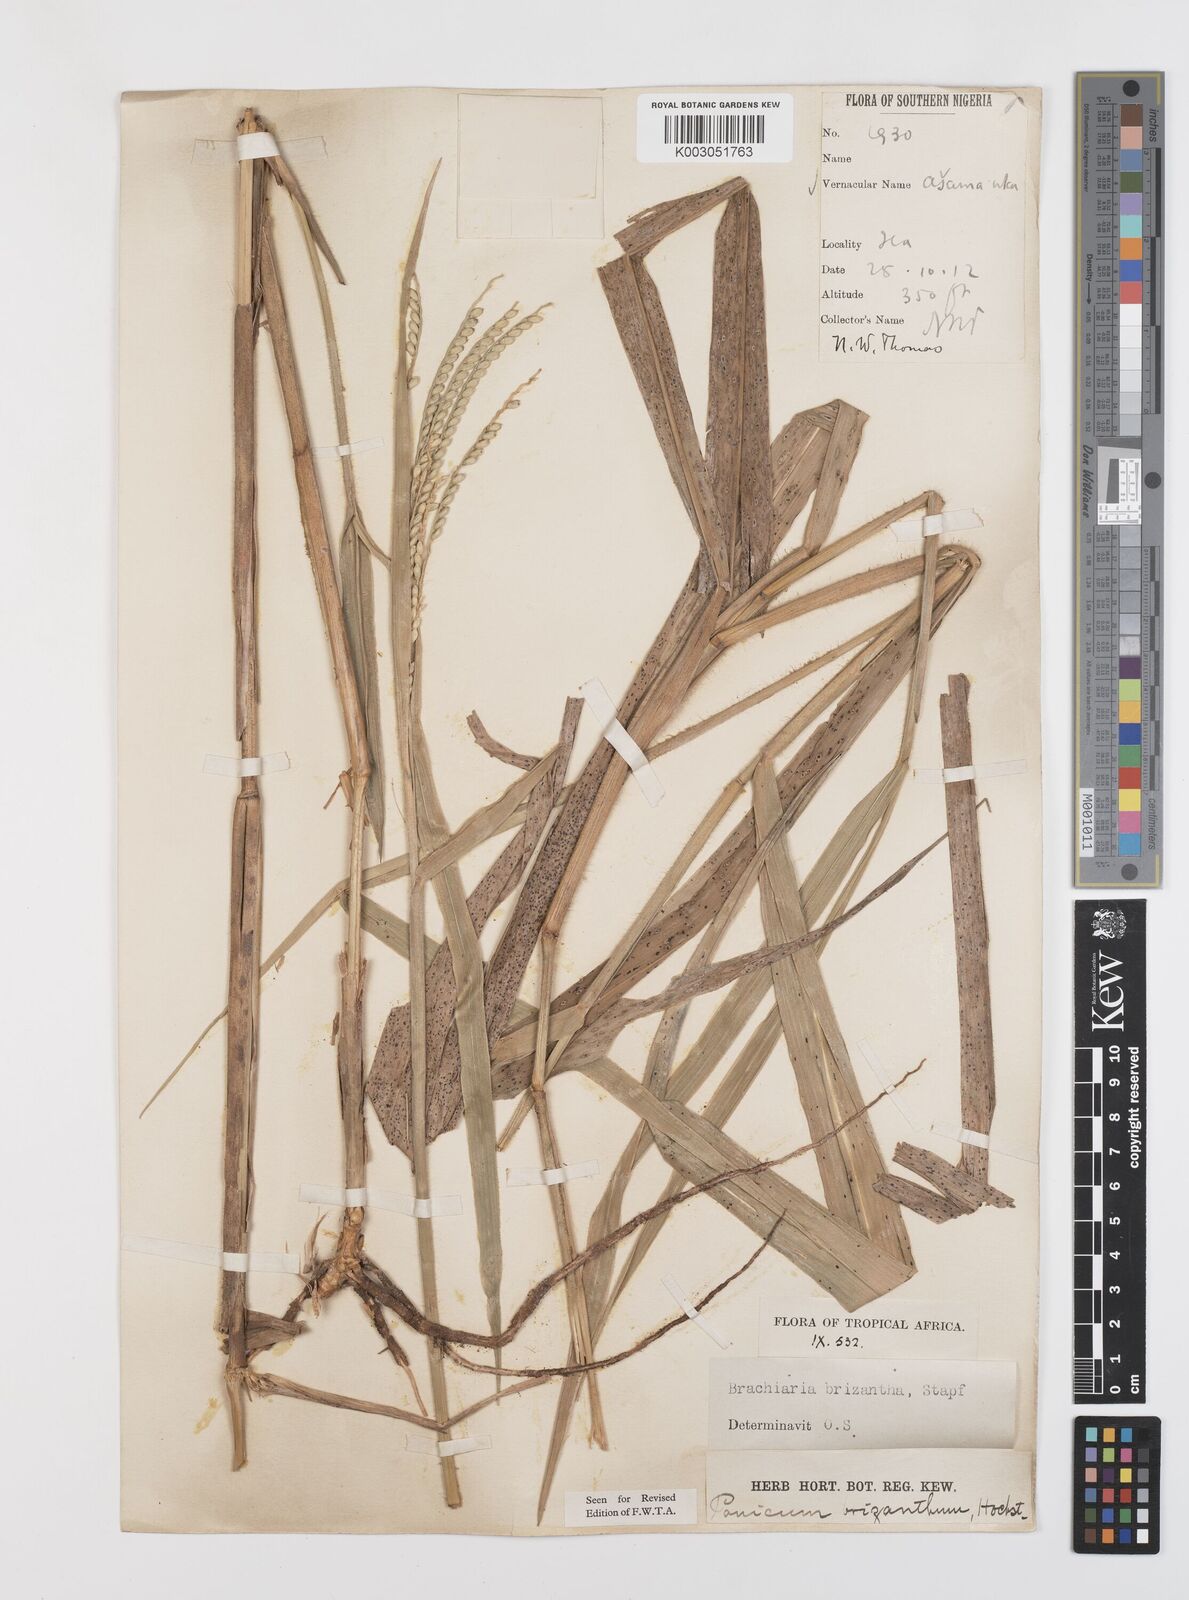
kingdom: Plantae
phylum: Tracheophyta
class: Liliopsida
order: Poales
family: Poaceae
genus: Urochloa
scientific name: Urochloa brizantha
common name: Palisade signalgrass
